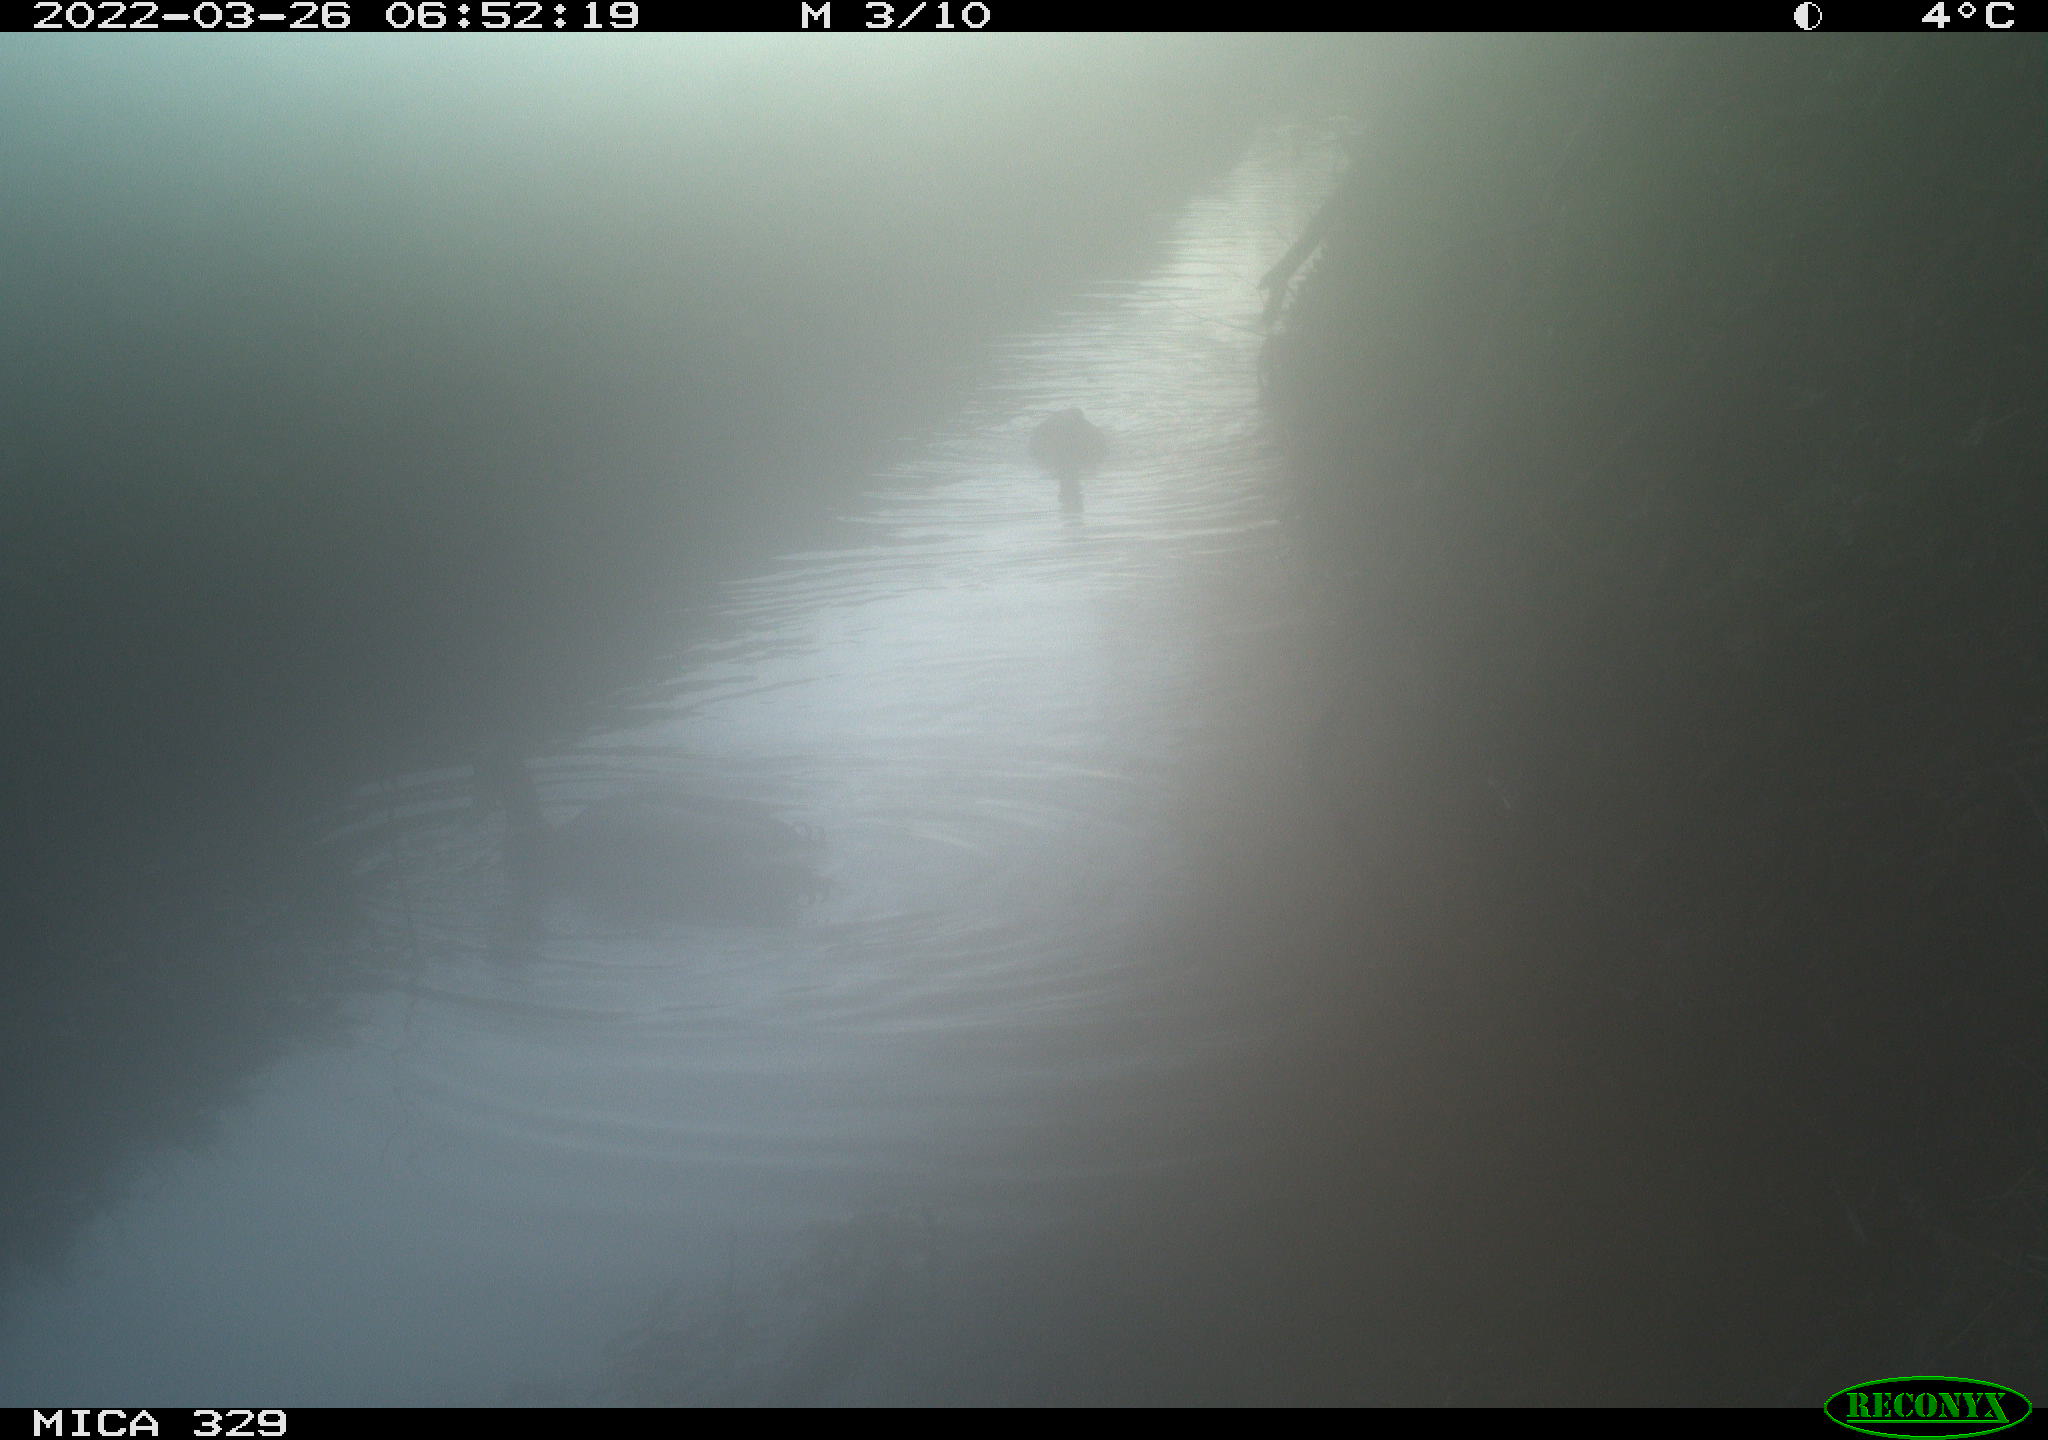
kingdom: Animalia
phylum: Chordata
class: Aves
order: Anseriformes
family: Anatidae
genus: Anas
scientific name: Anas platyrhynchos
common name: Mallard
